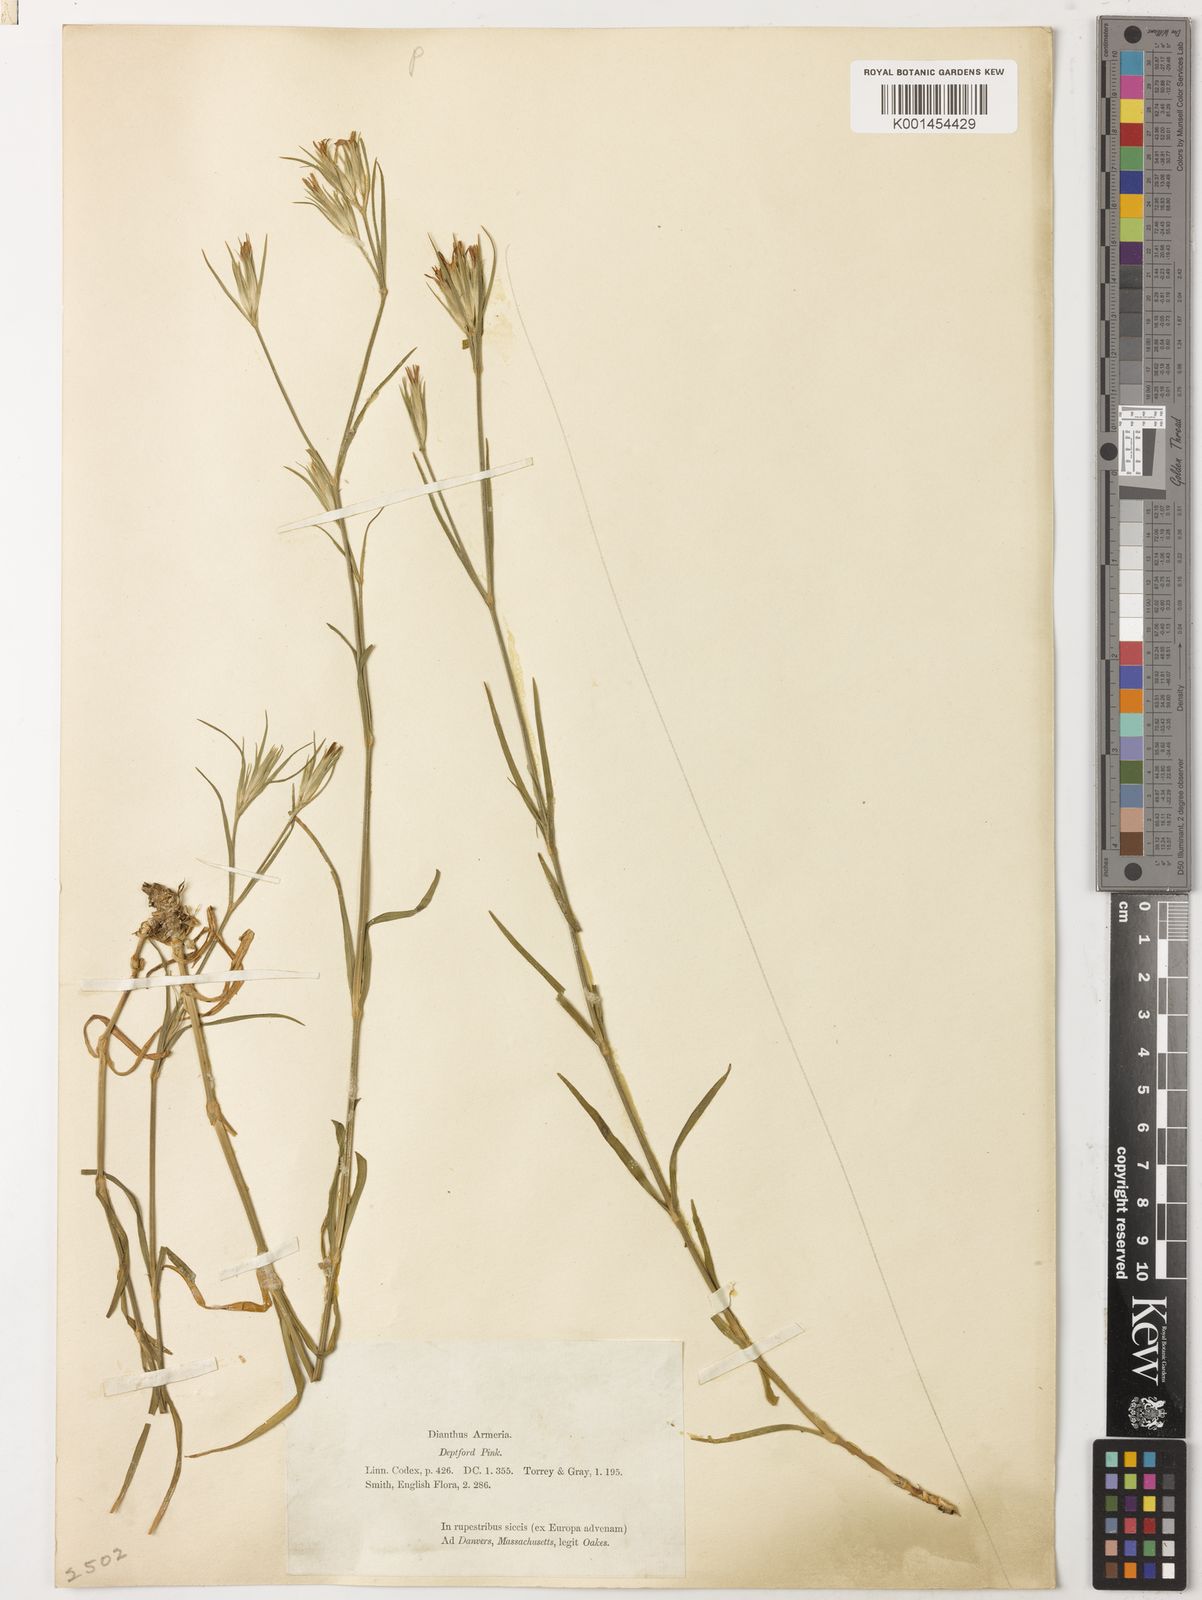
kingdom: Plantae
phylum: Tracheophyta
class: Magnoliopsida
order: Caryophyllales
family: Caryophyllaceae
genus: Dianthus
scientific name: Dianthus armeria
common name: Deptford pink
